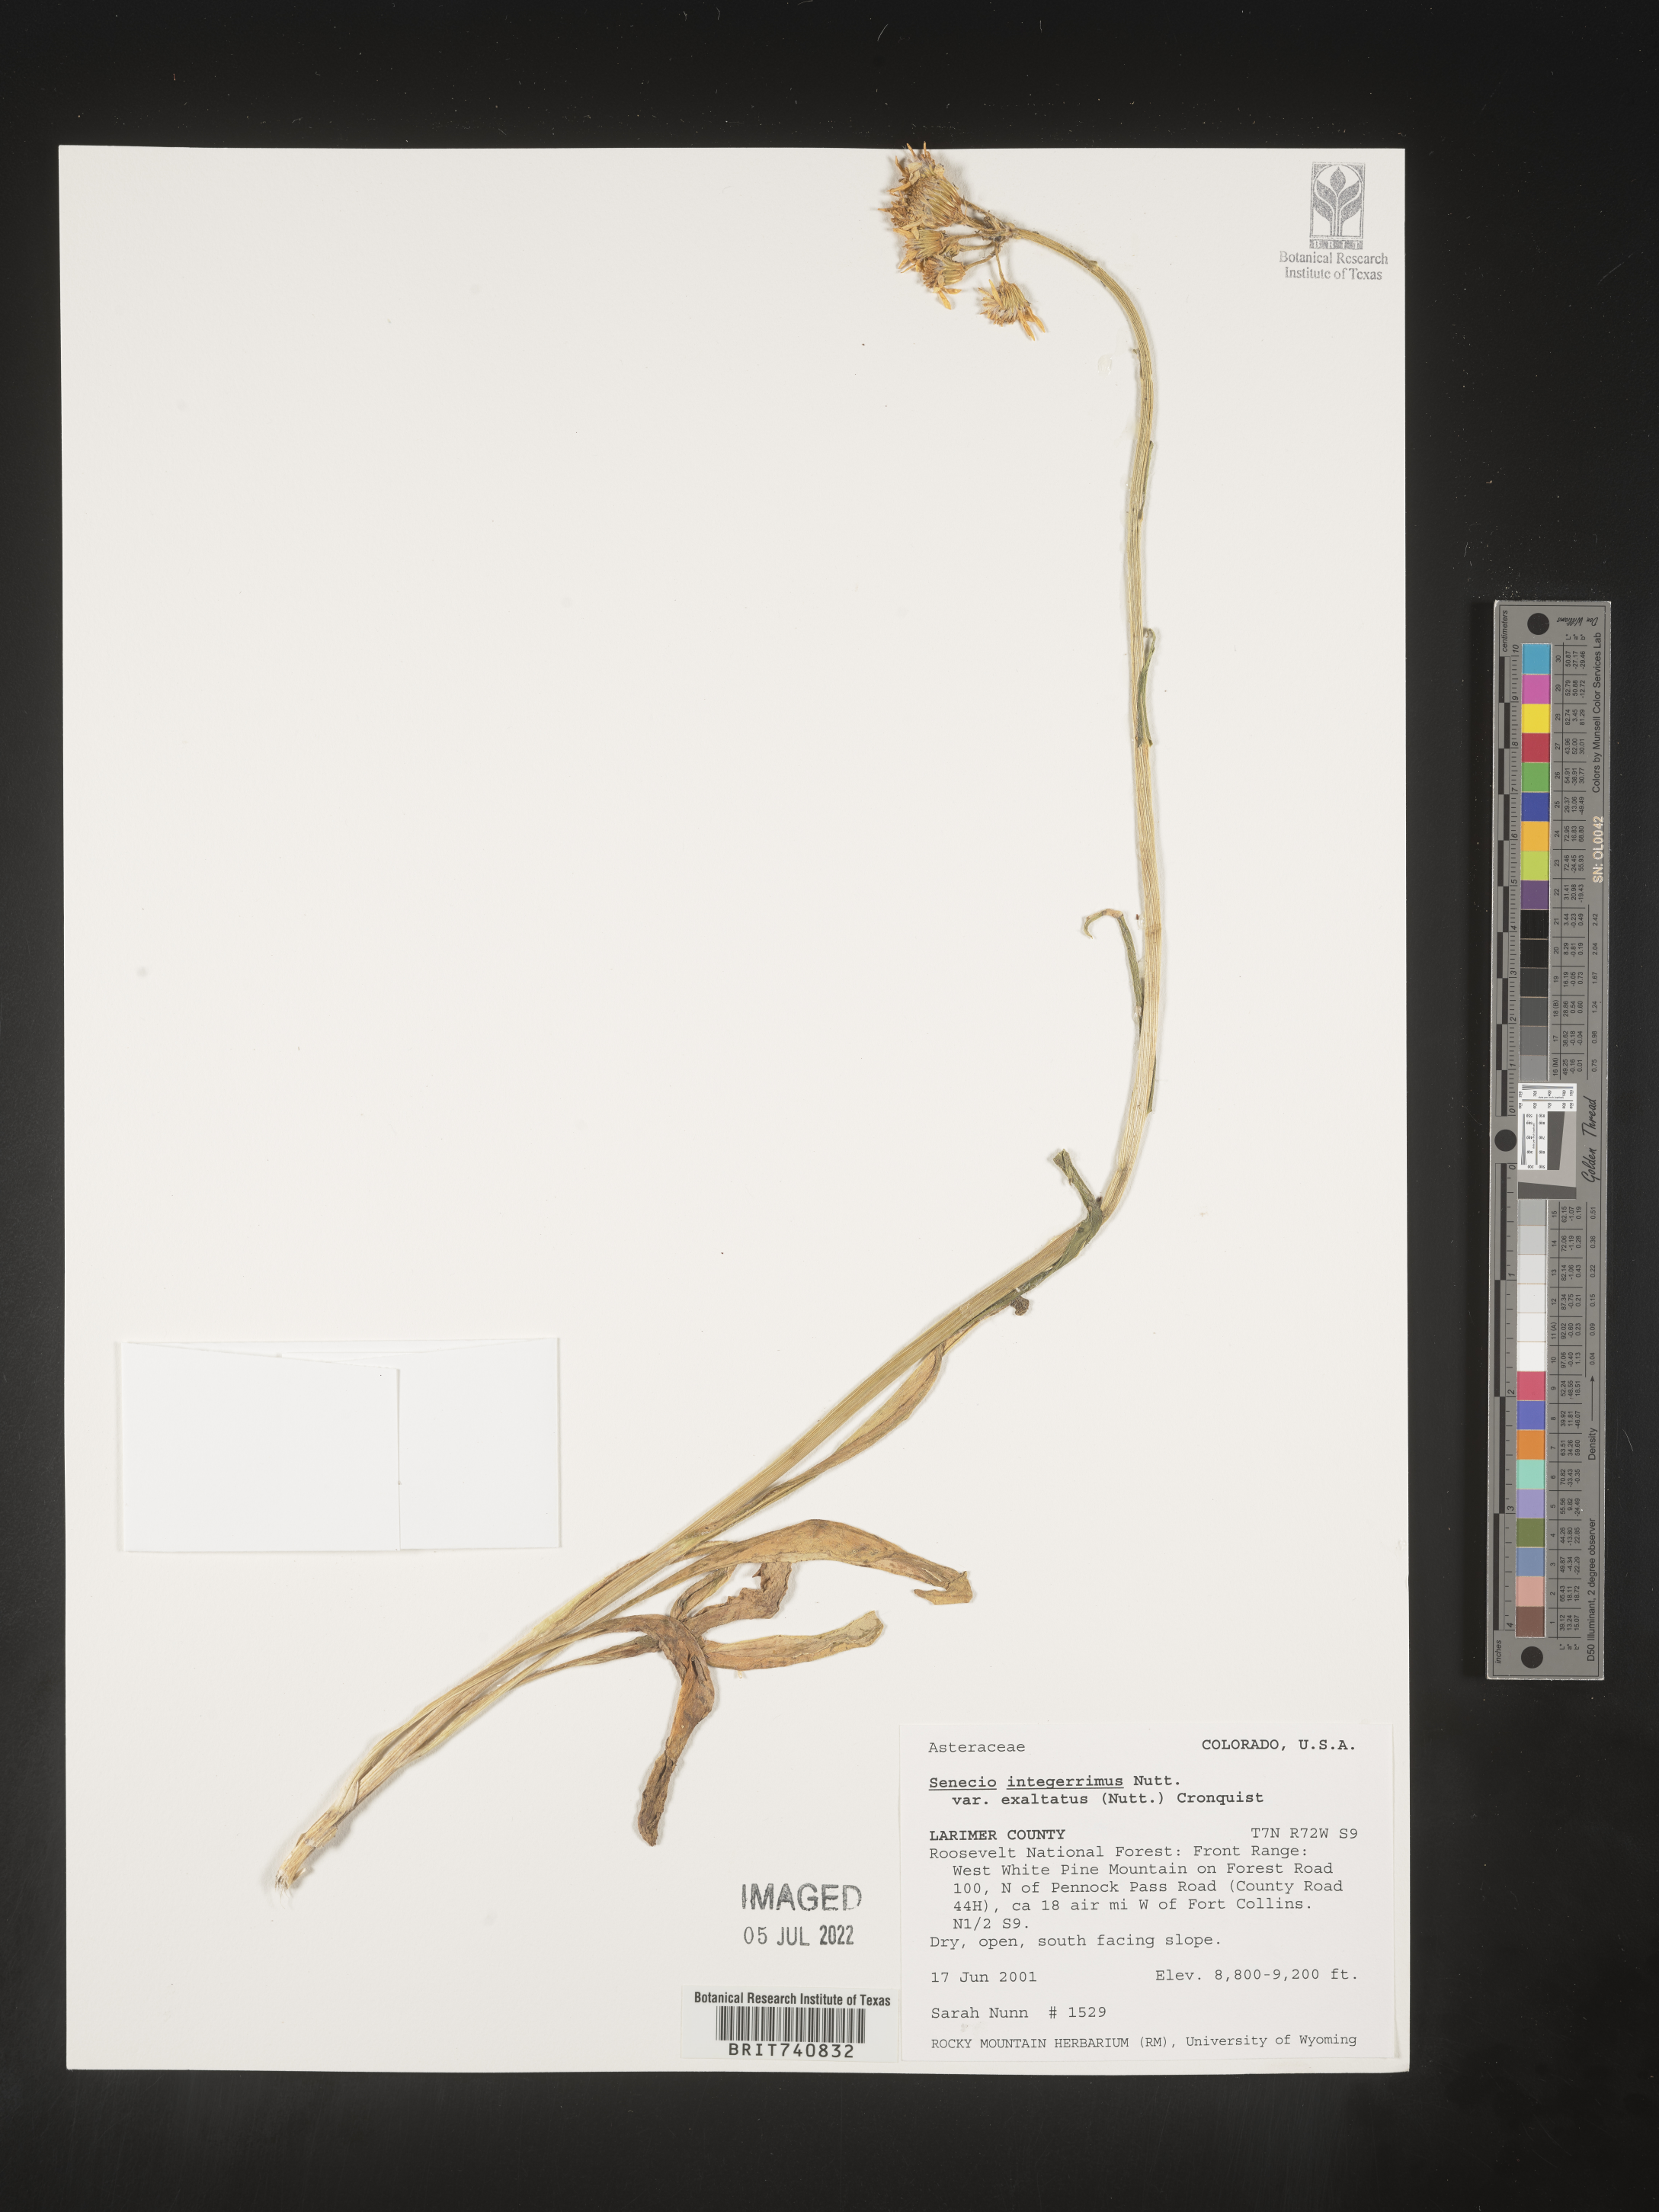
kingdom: Plantae
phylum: Tracheophyta
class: Magnoliopsida
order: Asterales
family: Asteraceae
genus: Senecio
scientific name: Senecio integerrimus
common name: Gaugeplant
